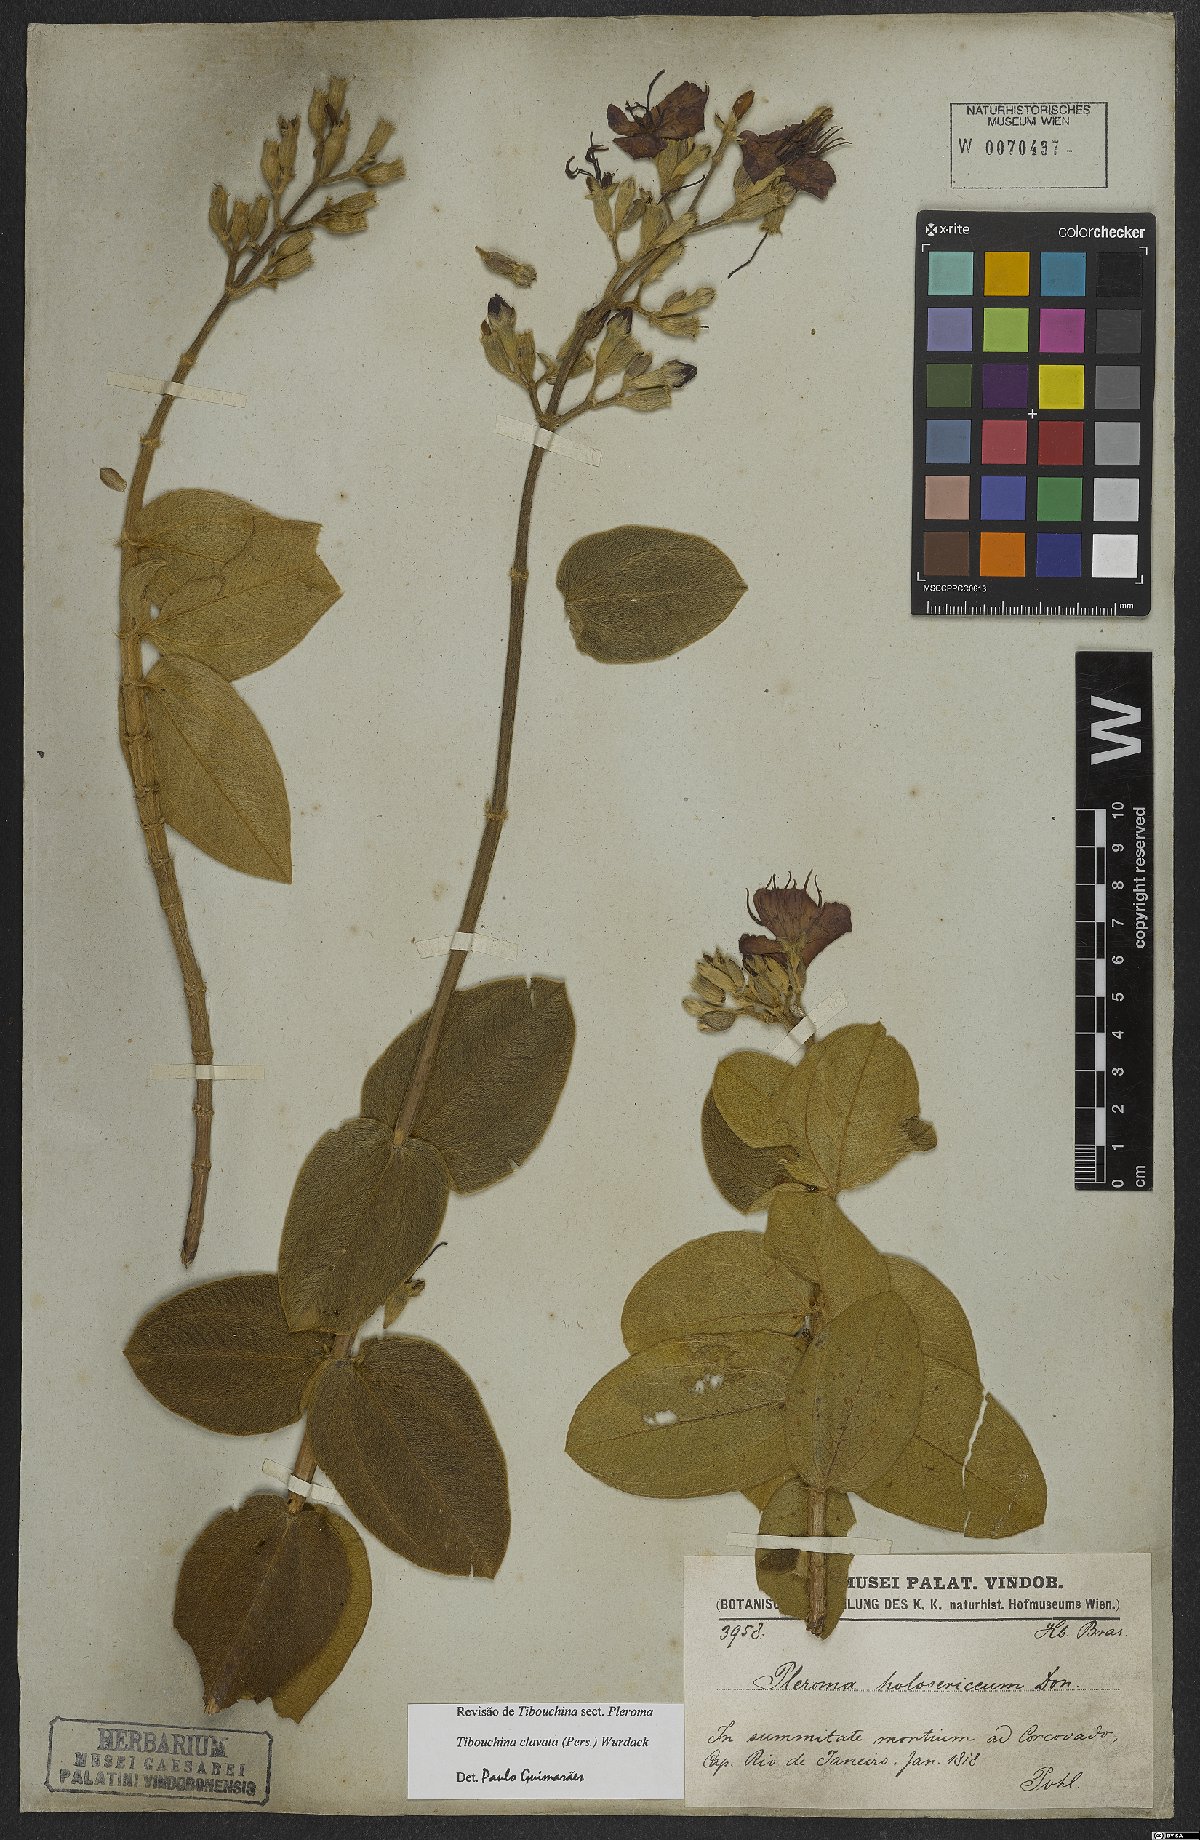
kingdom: Plantae
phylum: Tracheophyta
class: Magnoliopsida
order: Myrtales
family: Melastomataceae
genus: Pleroma
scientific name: Pleroma clavatum
